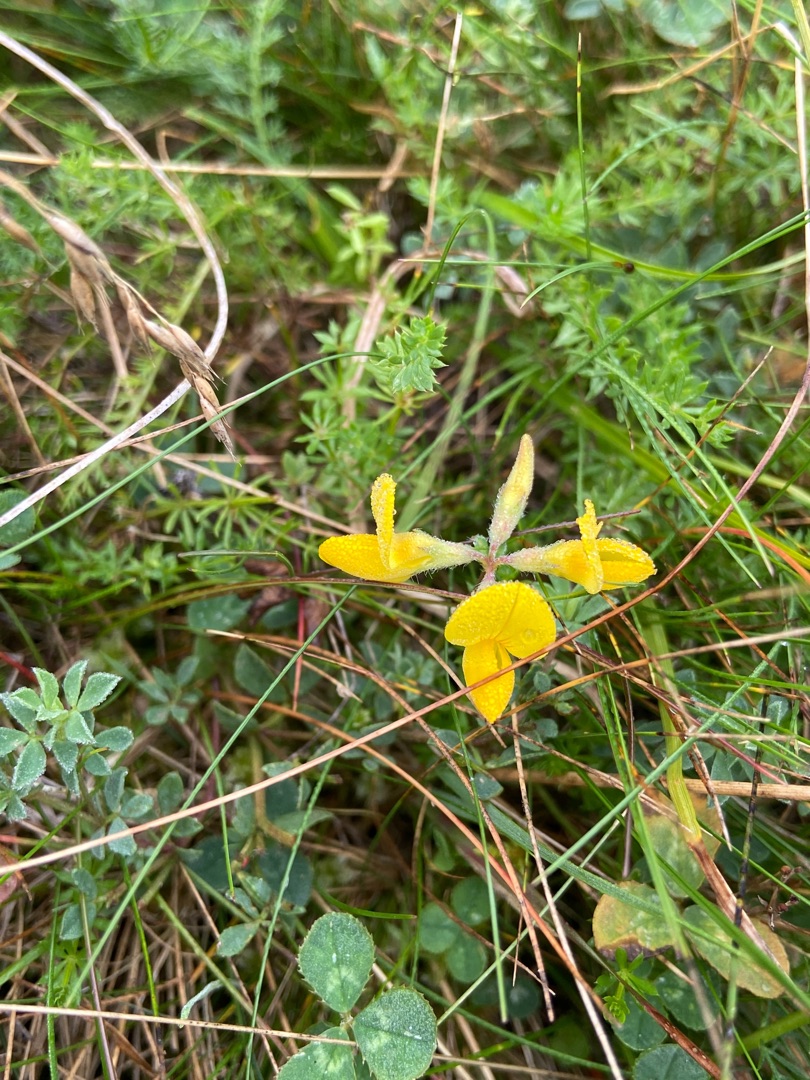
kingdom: Plantae
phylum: Tracheophyta
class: Magnoliopsida
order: Fabales
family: Fabaceae
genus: Lotus
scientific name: Lotus corniculatus
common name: Almindelig kællingetand
